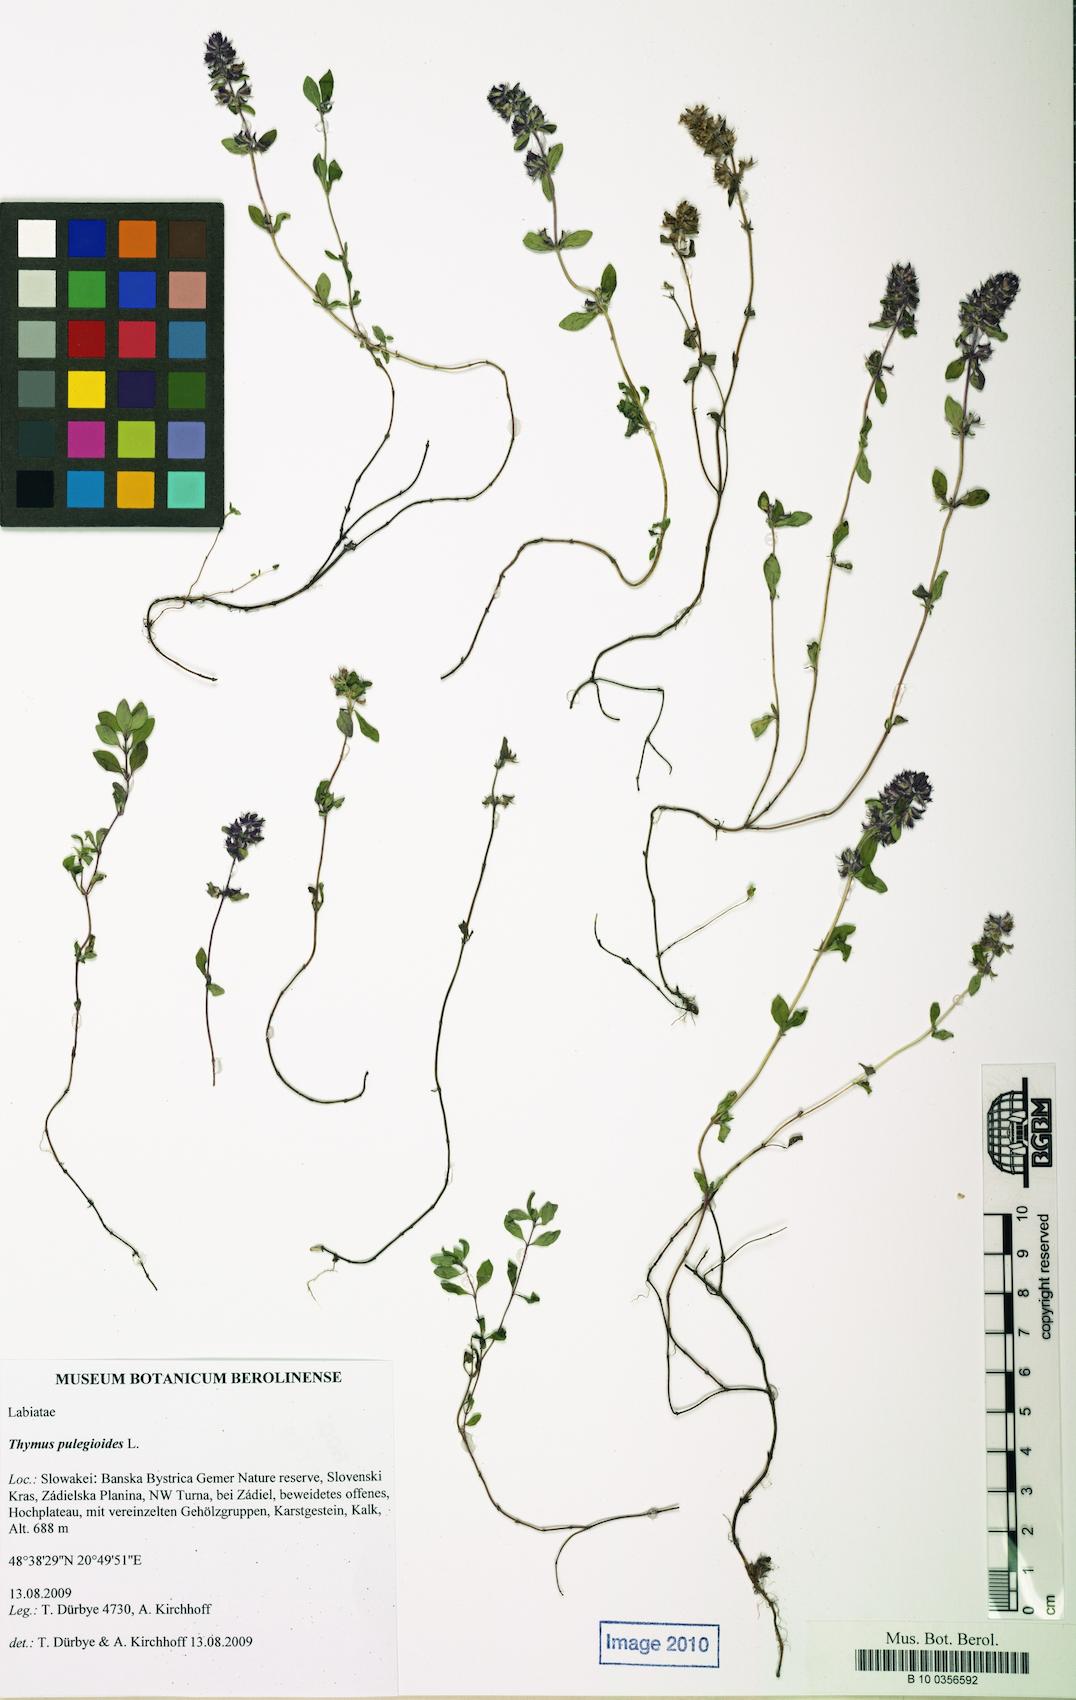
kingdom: Plantae
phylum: Tracheophyta
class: Magnoliopsida
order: Lamiales
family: Lamiaceae
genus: Thymus
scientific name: Thymus pulegioides
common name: Large thyme
